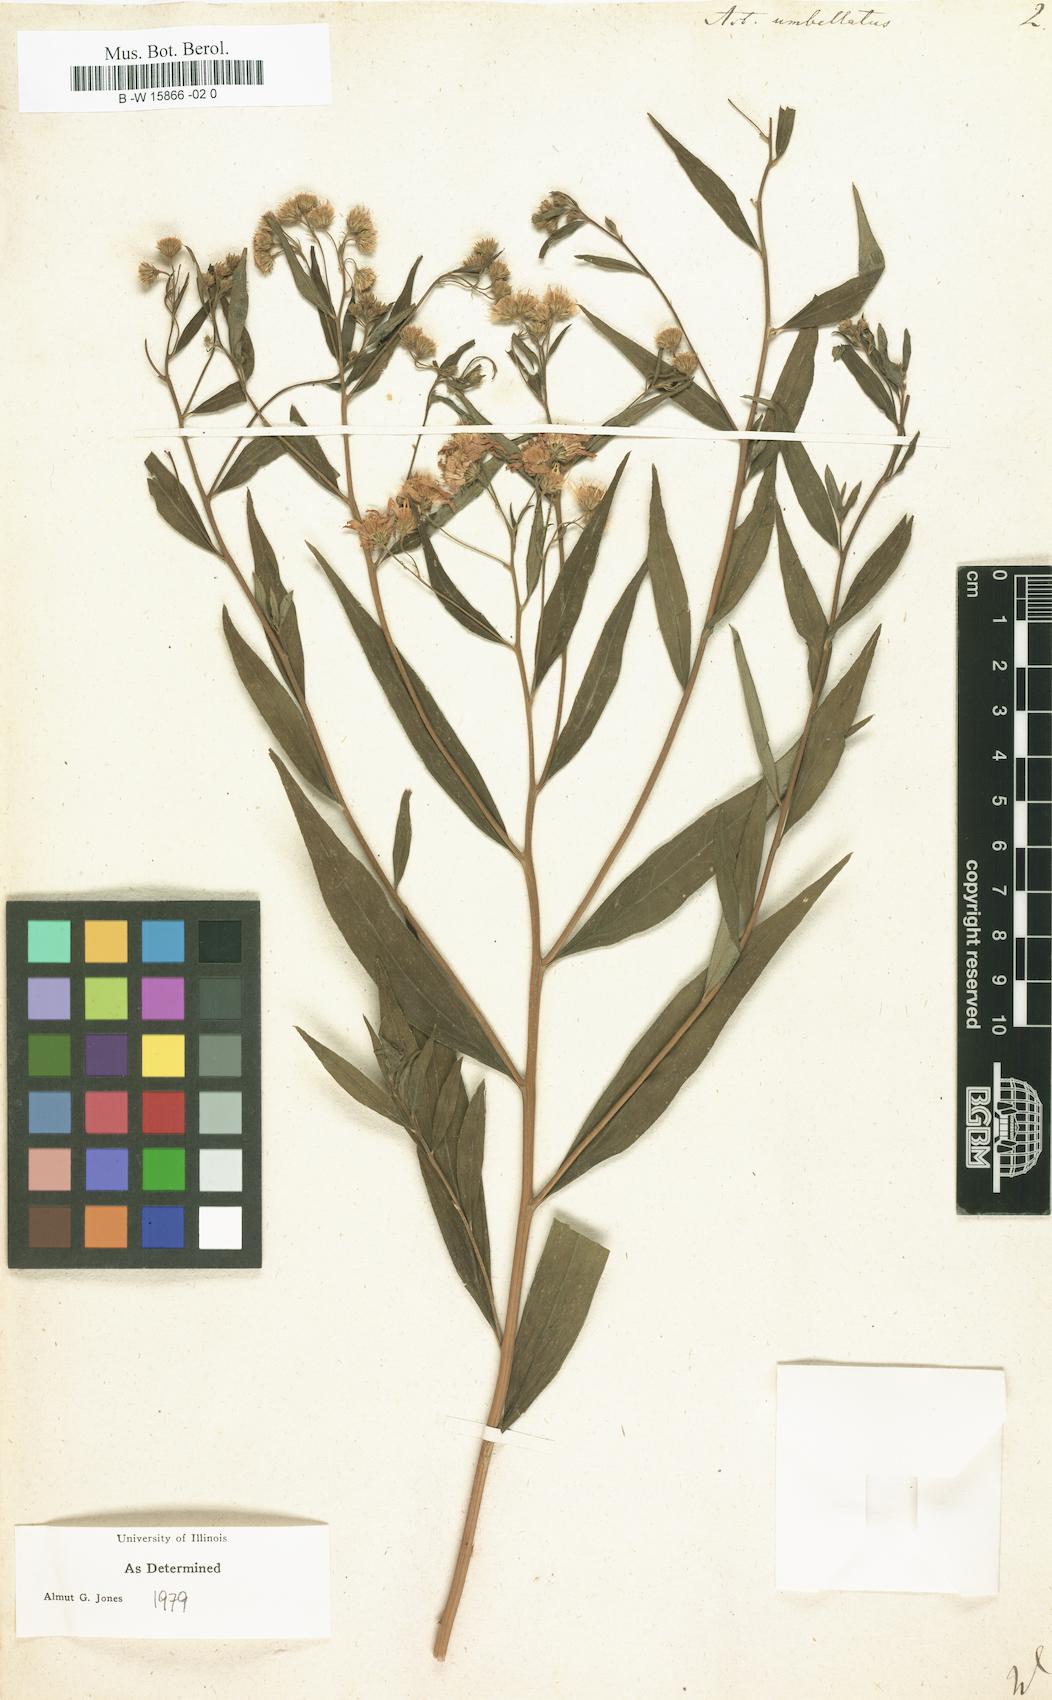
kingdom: Plantae
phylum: Tracheophyta
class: Magnoliopsida
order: Asterales
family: Asteraceae
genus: Doellingeria
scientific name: Doellingeria umbellata
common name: Flat-top white aster
